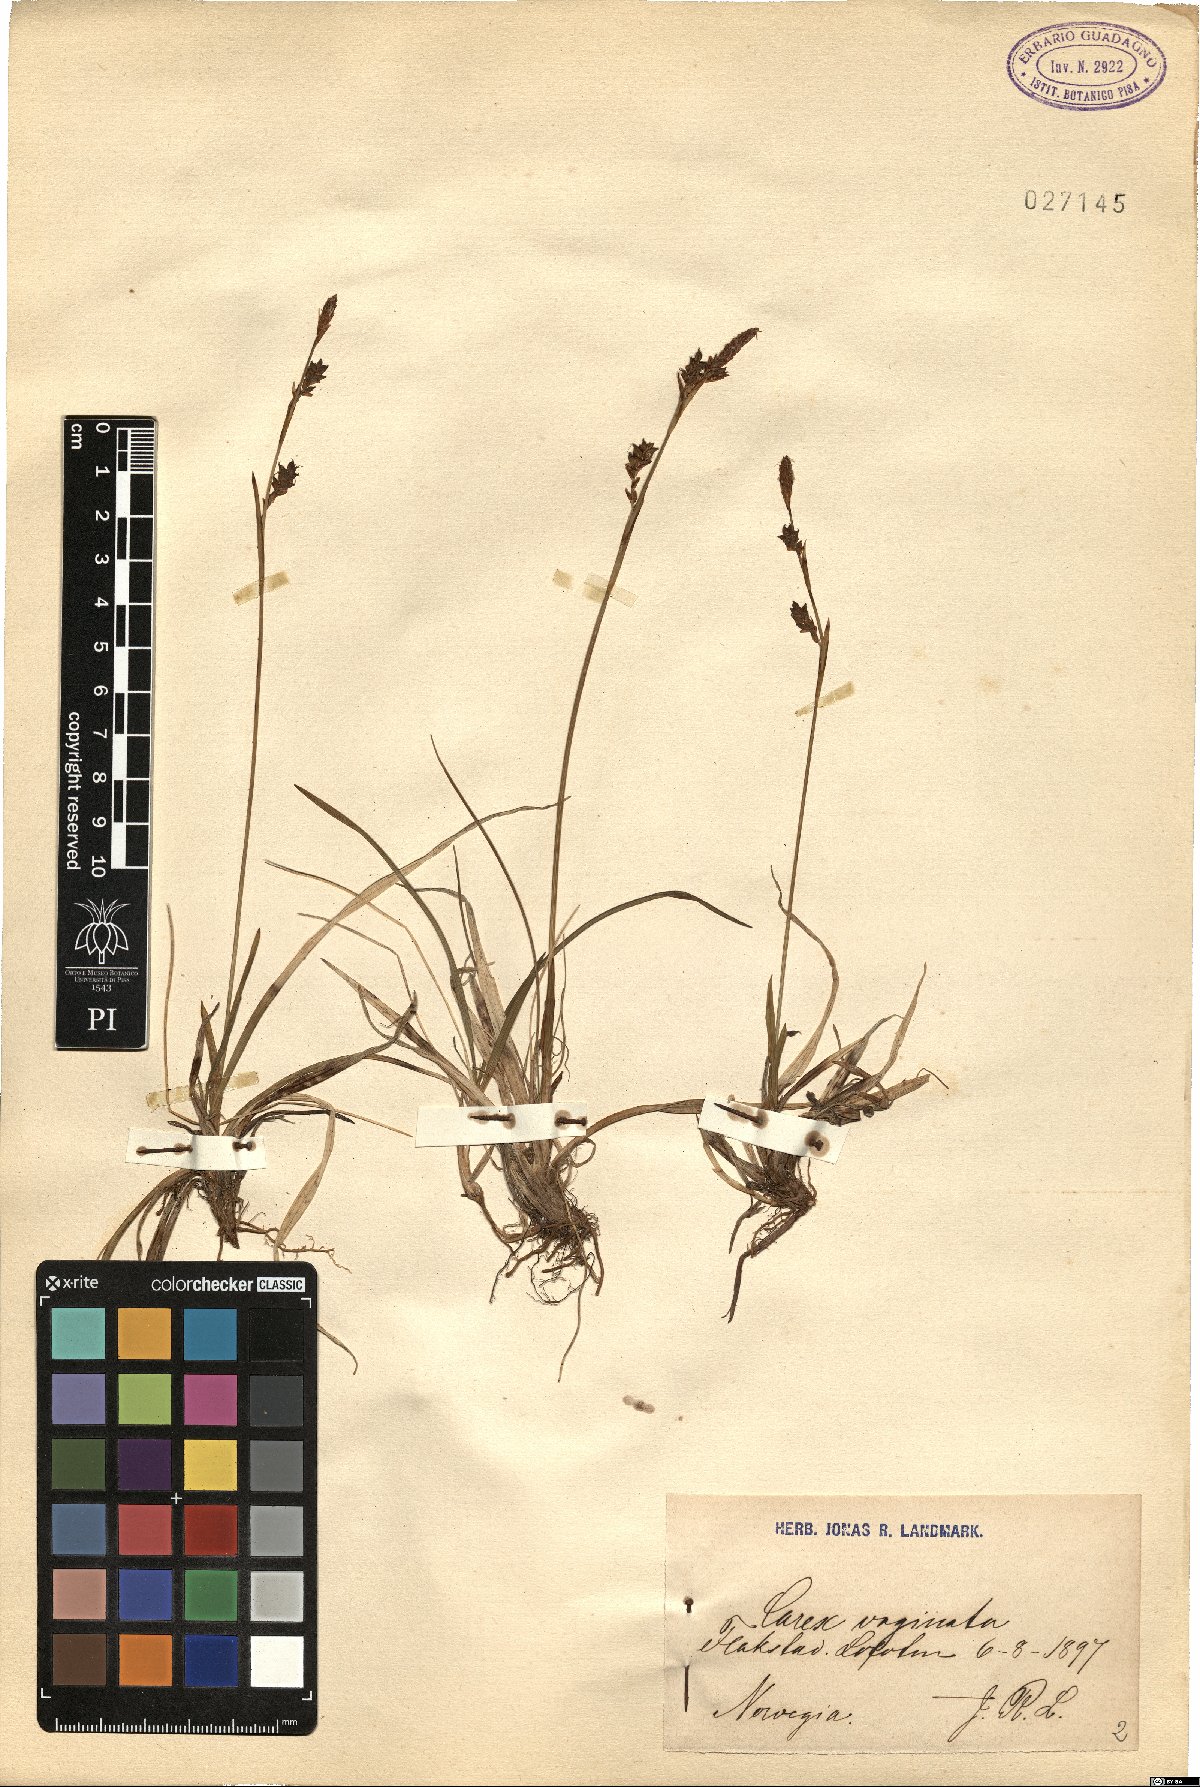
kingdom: Plantae
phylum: Tracheophyta
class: Liliopsida
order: Poales
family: Cyperaceae
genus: Carex
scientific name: Carex vaginata
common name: Sheathed sedge
